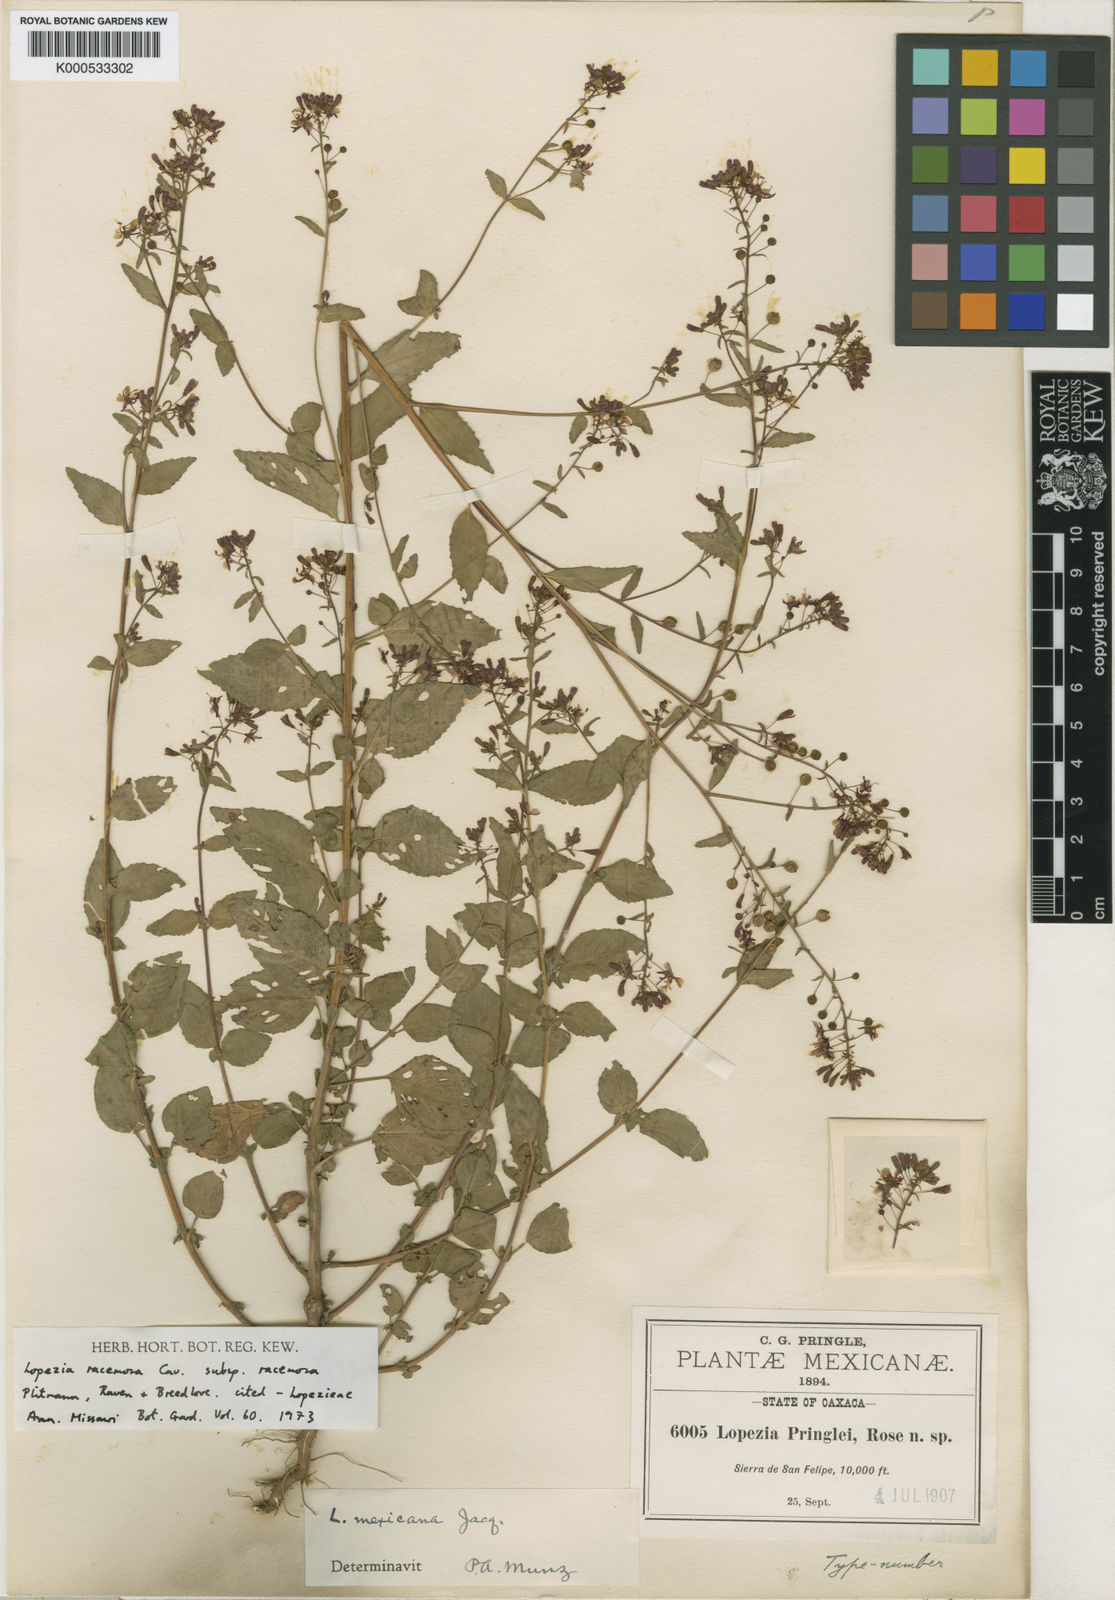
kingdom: Plantae
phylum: Tracheophyta
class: Magnoliopsida
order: Myrtales
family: Onagraceae
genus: Lopezia
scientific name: Lopezia racemosa
